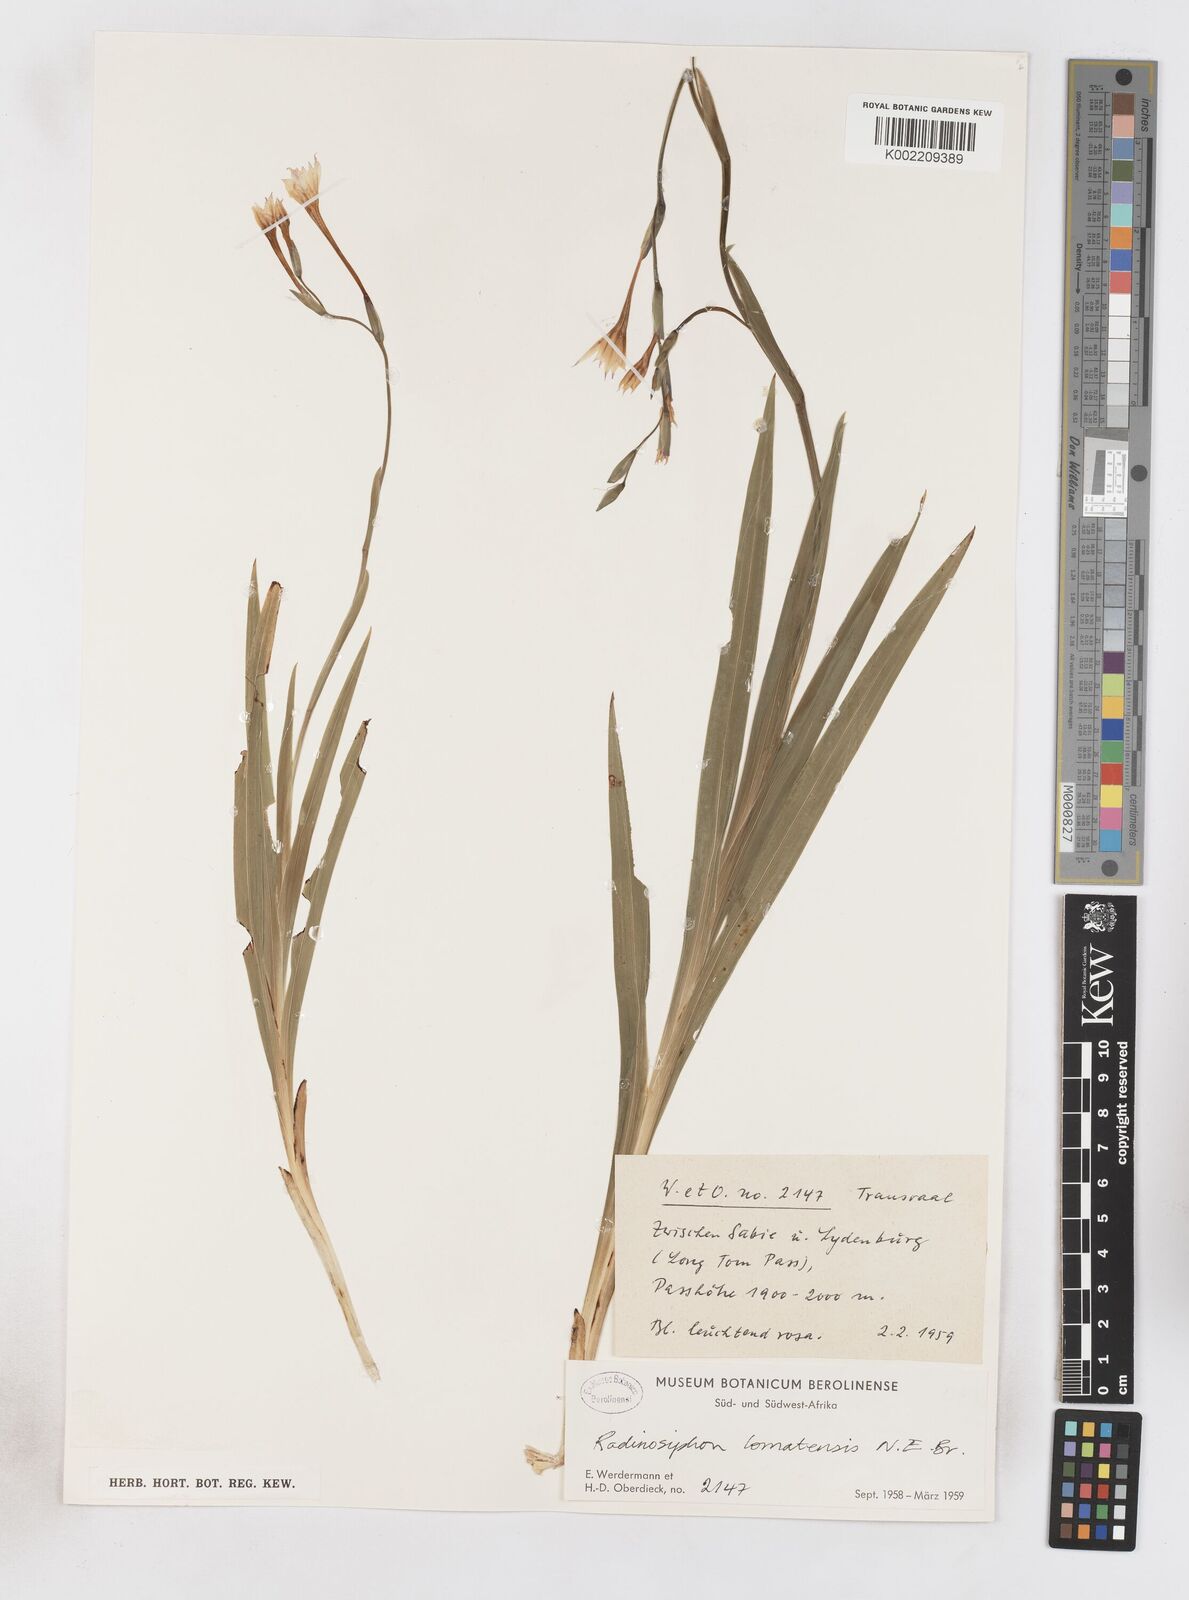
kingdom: Plantae
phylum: Tracheophyta
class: Liliopsida
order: Asparagales
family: Iridaceae
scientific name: Iridaceae
